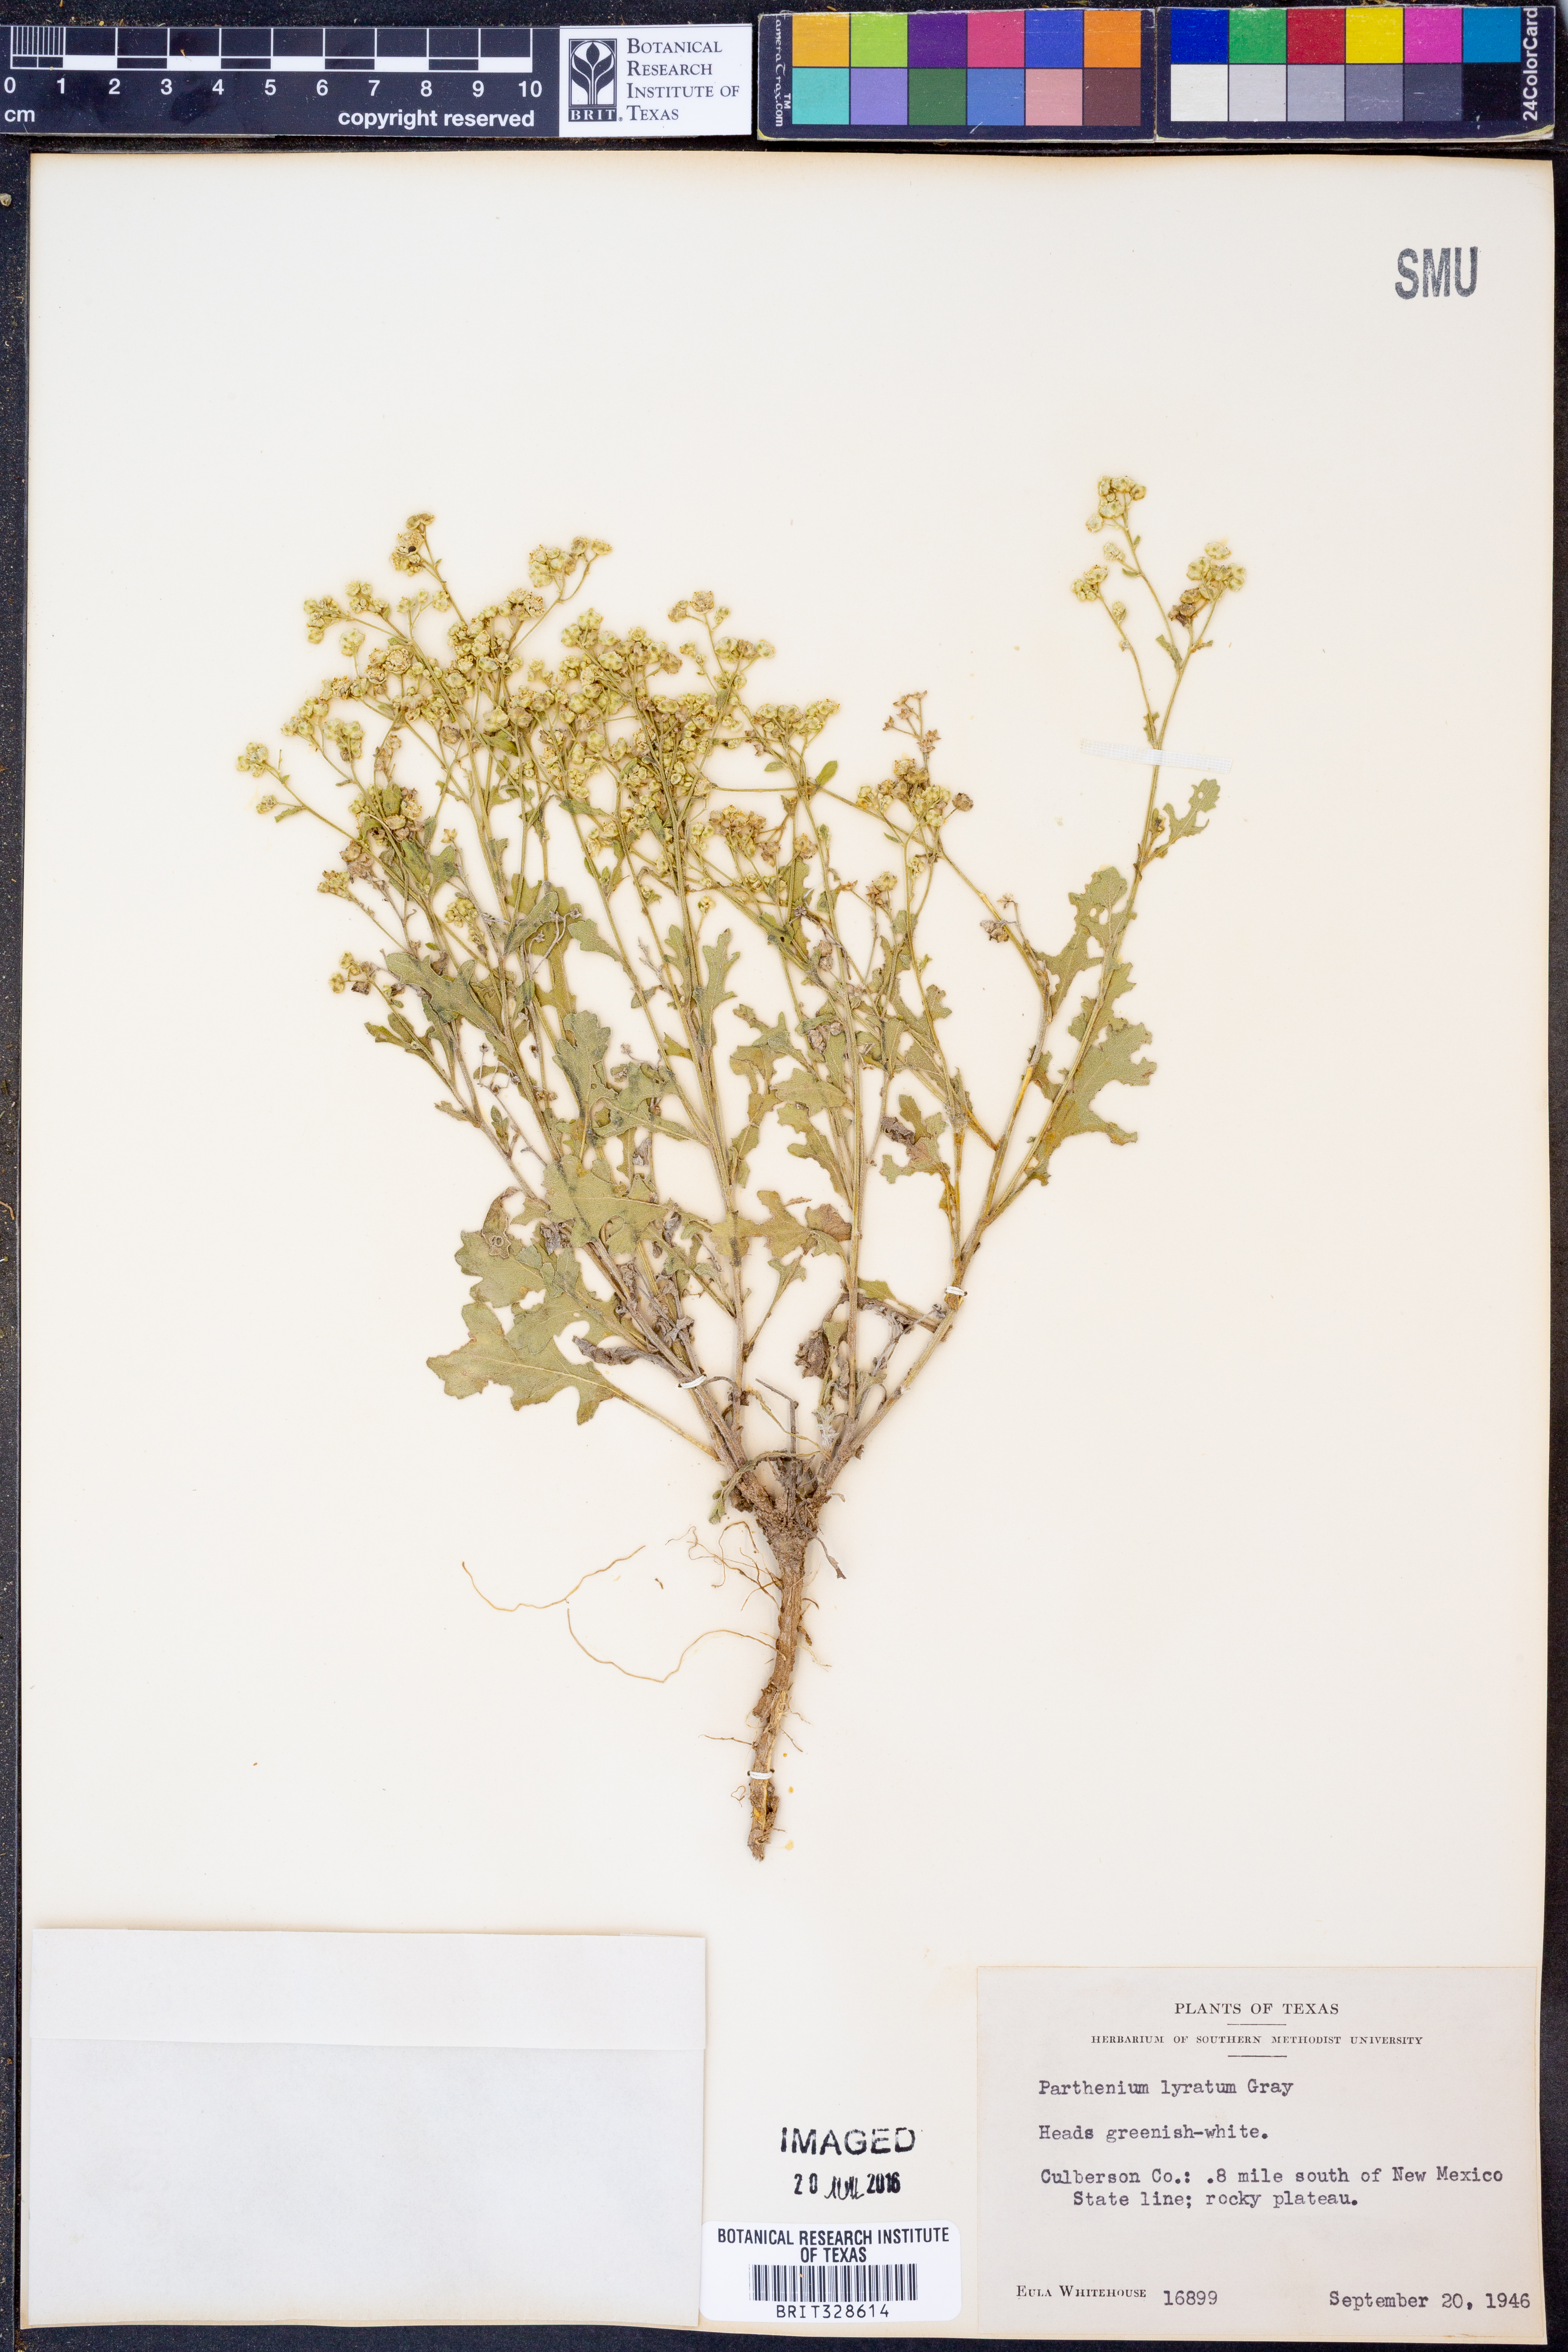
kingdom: Plantae
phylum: Tracheophyta
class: Magnoliopsida
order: Asterales
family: Asteraceae
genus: Parthenium
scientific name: Parthenium confertum
